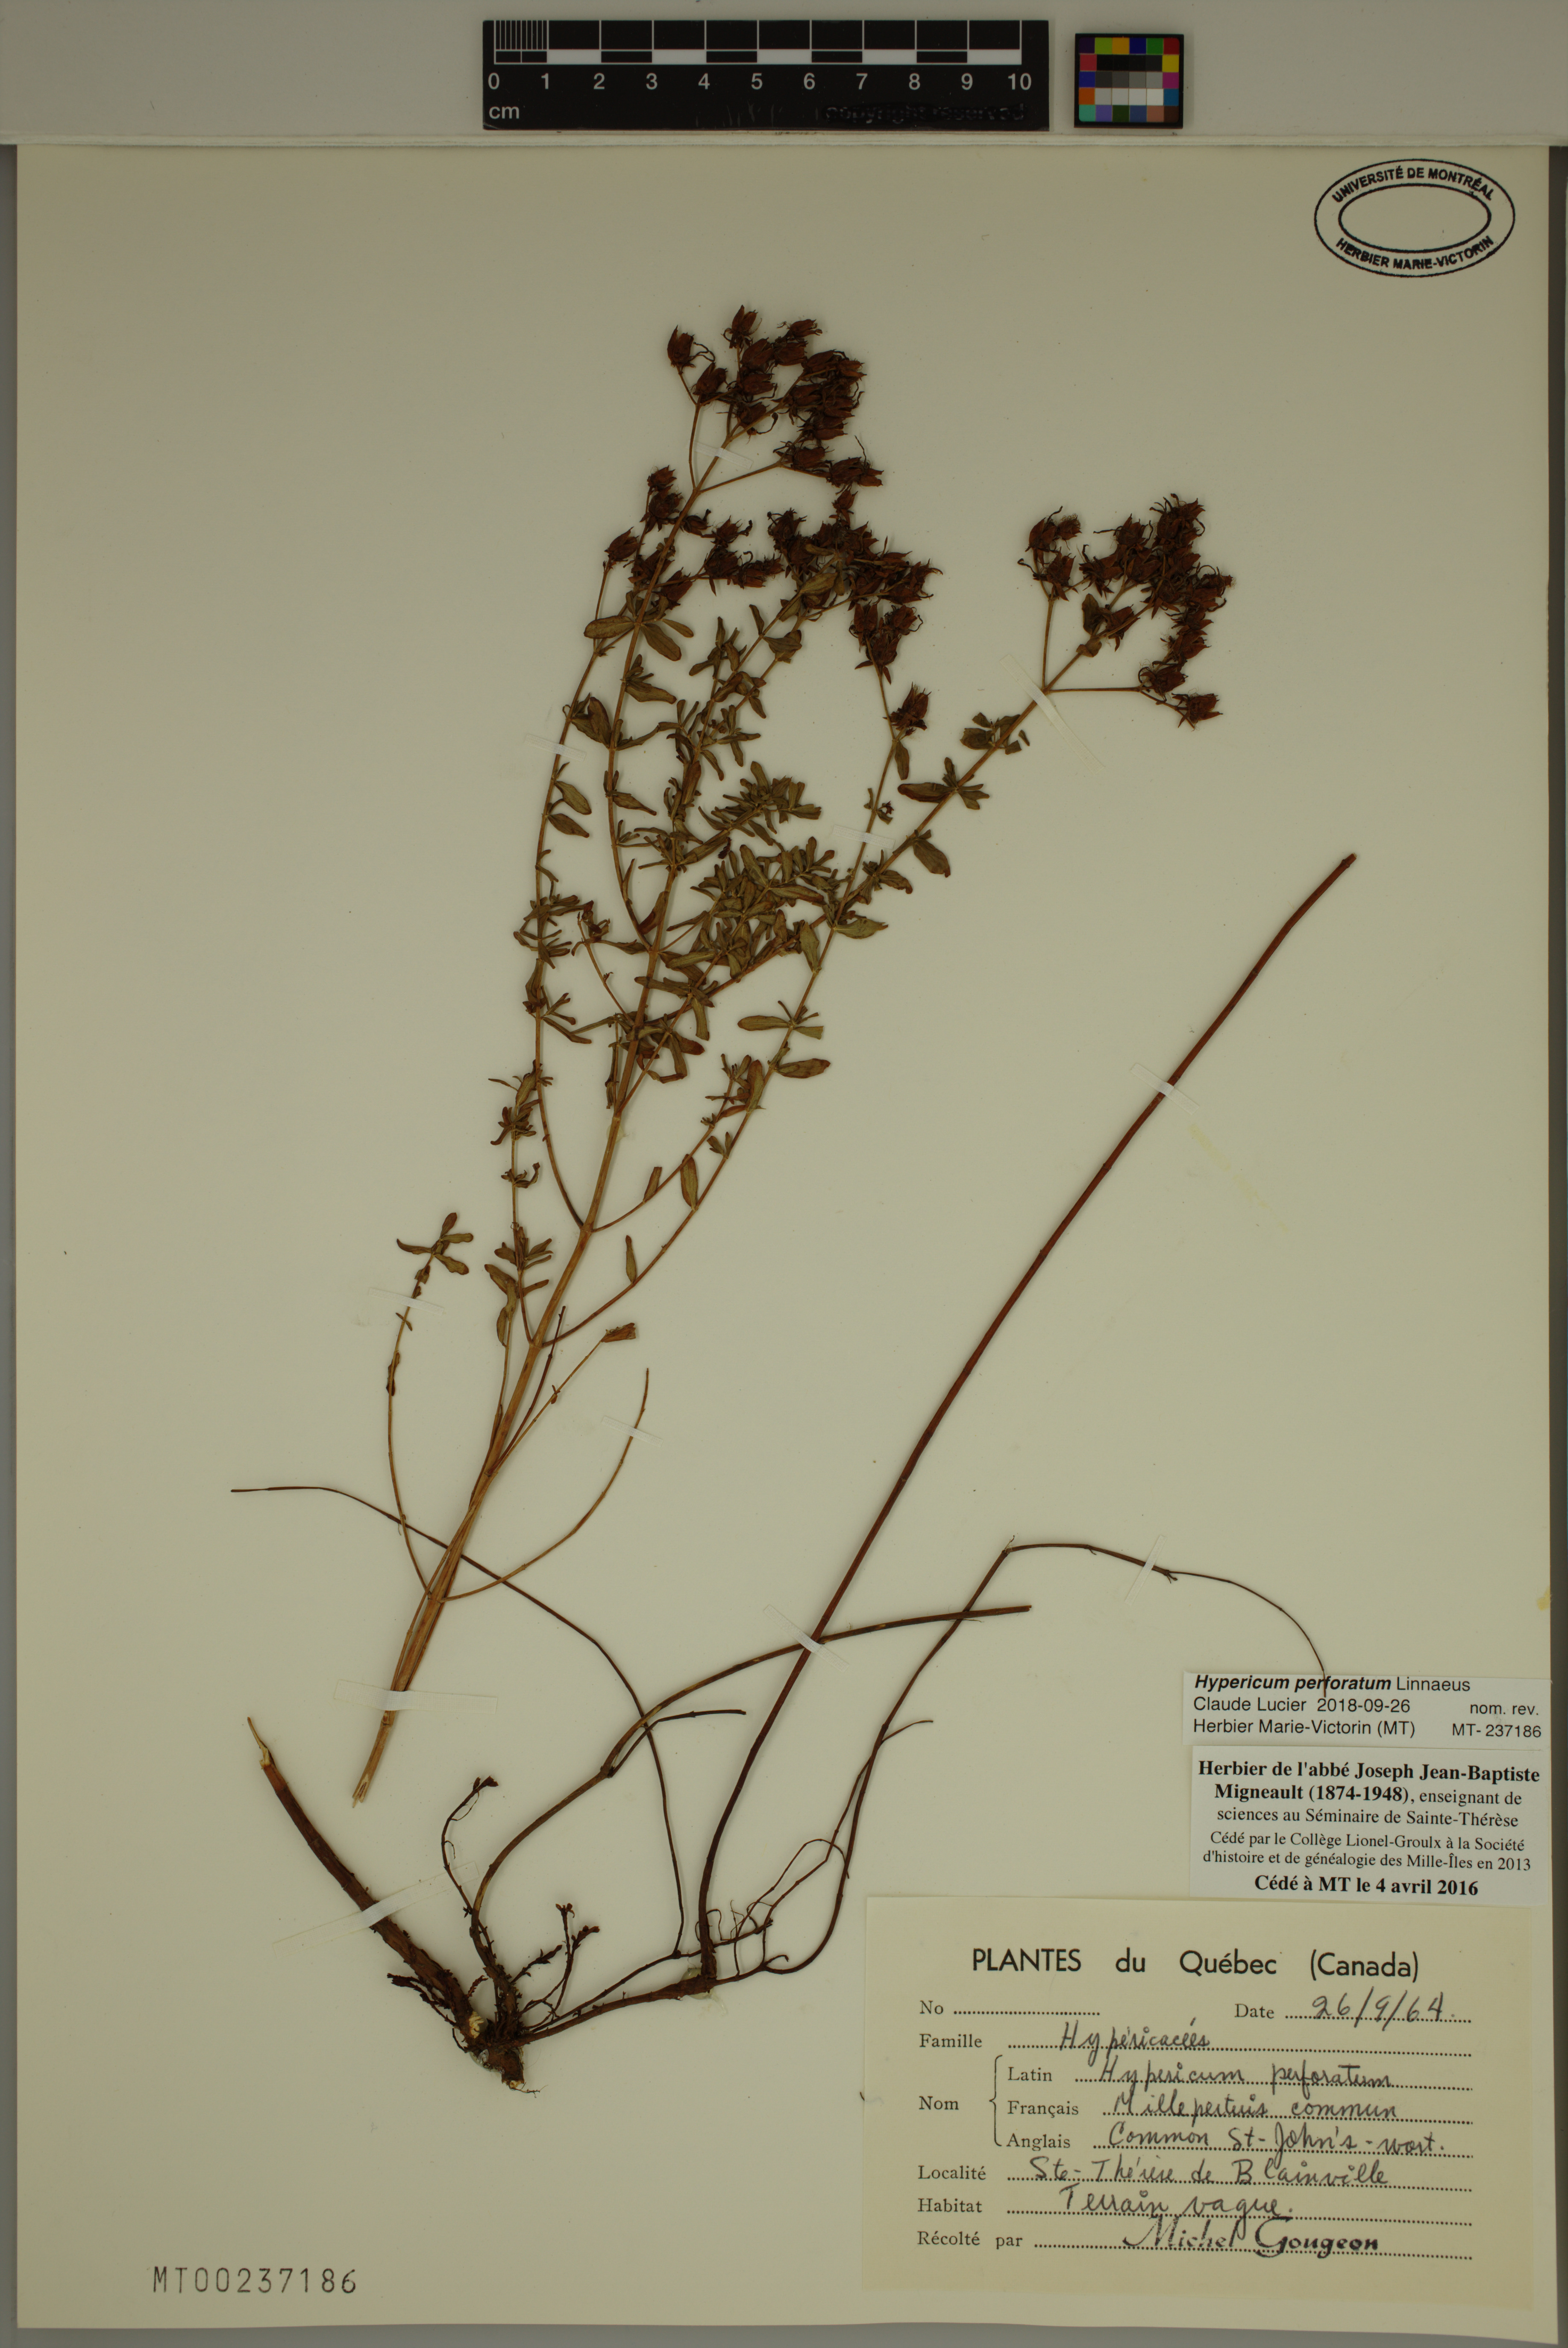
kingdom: Plantae
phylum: Tracheophyta
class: Magnoliopsida
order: Malpighiales
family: Hypericaceae
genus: Hypericum
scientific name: Hypericum perforatum
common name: Common st. johnswort
